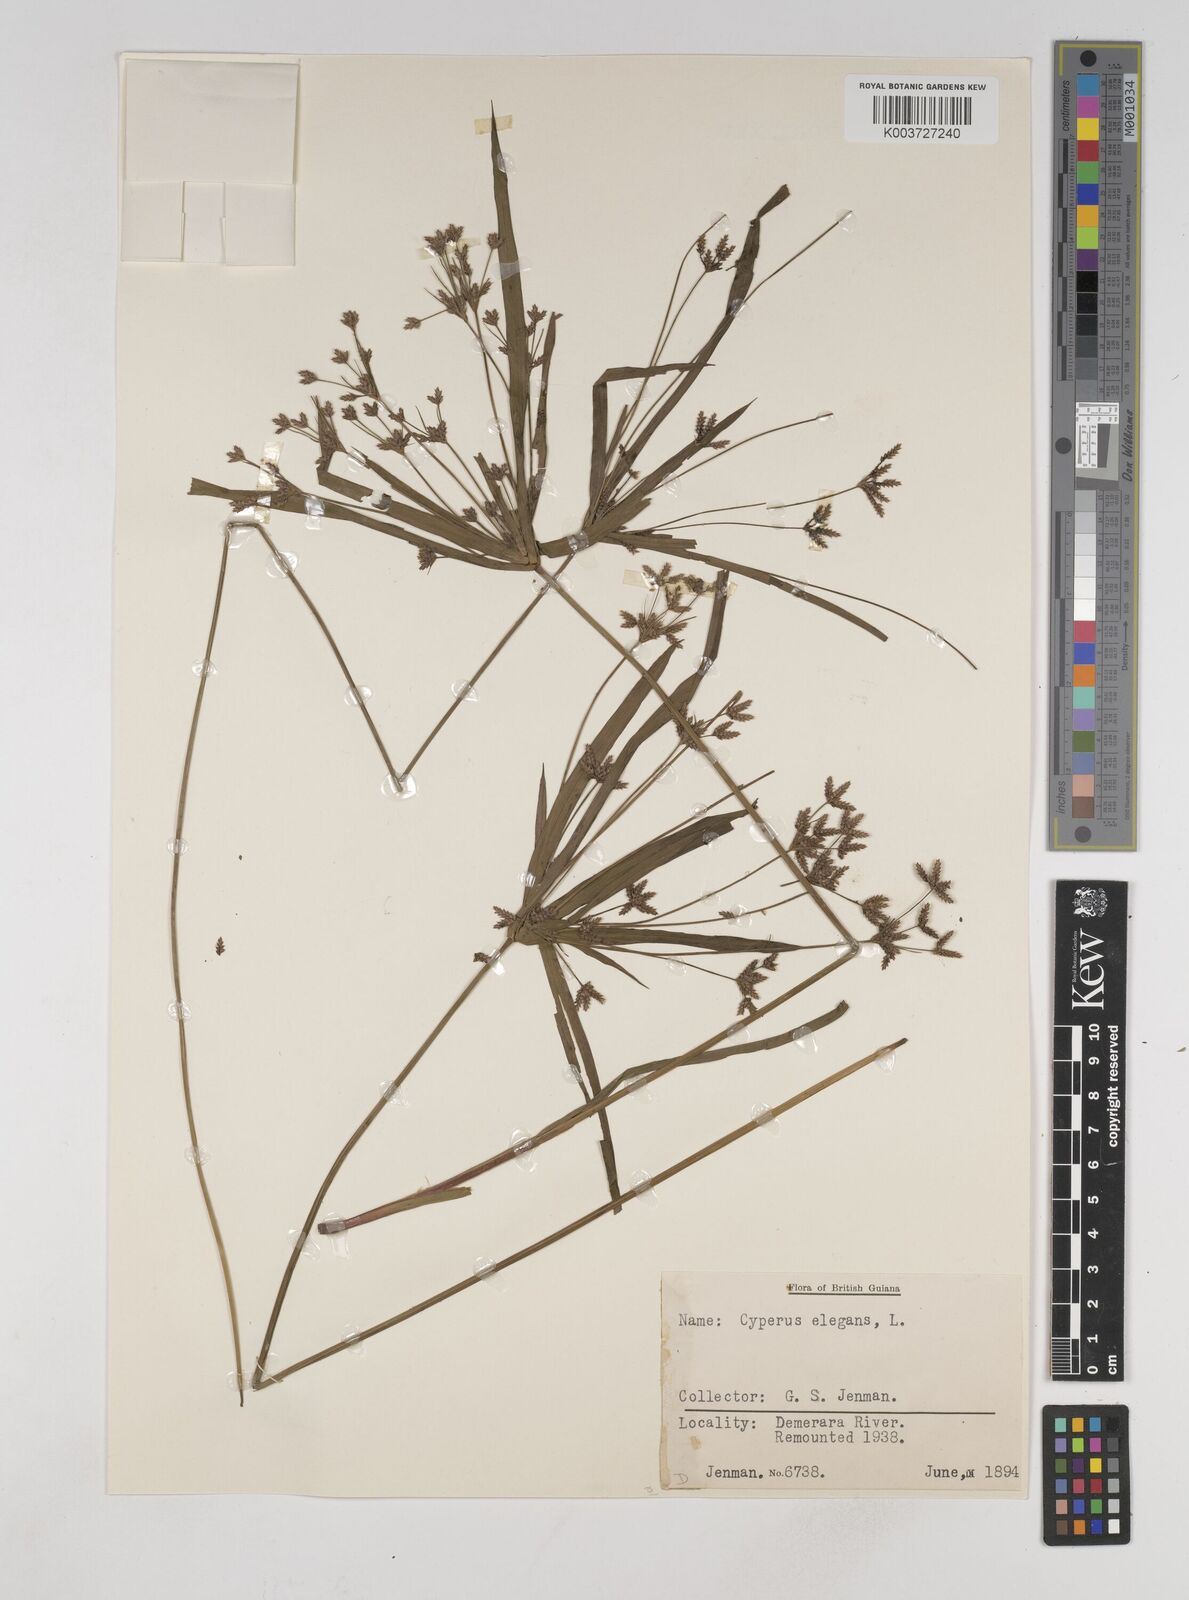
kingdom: Plantae
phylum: Tracheophyta
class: Liliopsida
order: Poales
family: Cyperaceae
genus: Cyperus
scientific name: Cyperus elegans
